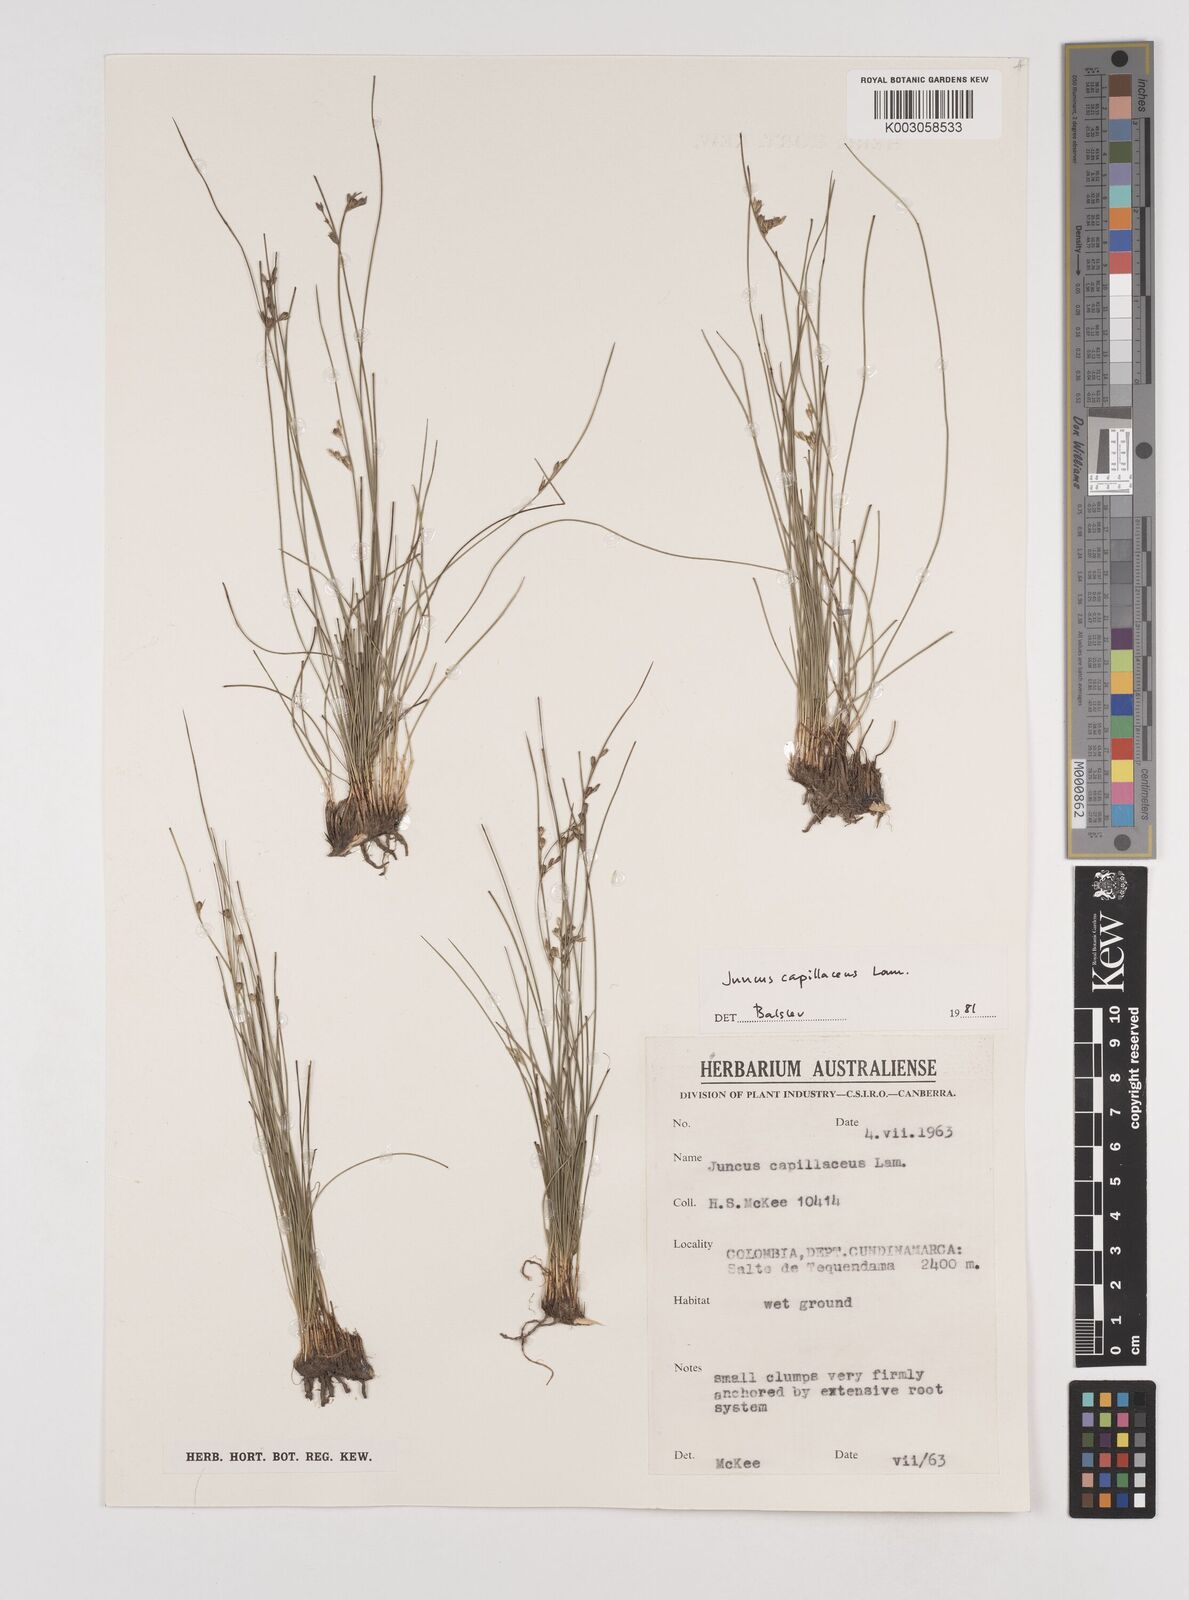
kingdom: Plantae
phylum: Tracheophyta
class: Liliopsida
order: Poales
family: Juncaceae
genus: Juncus
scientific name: Juncus capillaceus
